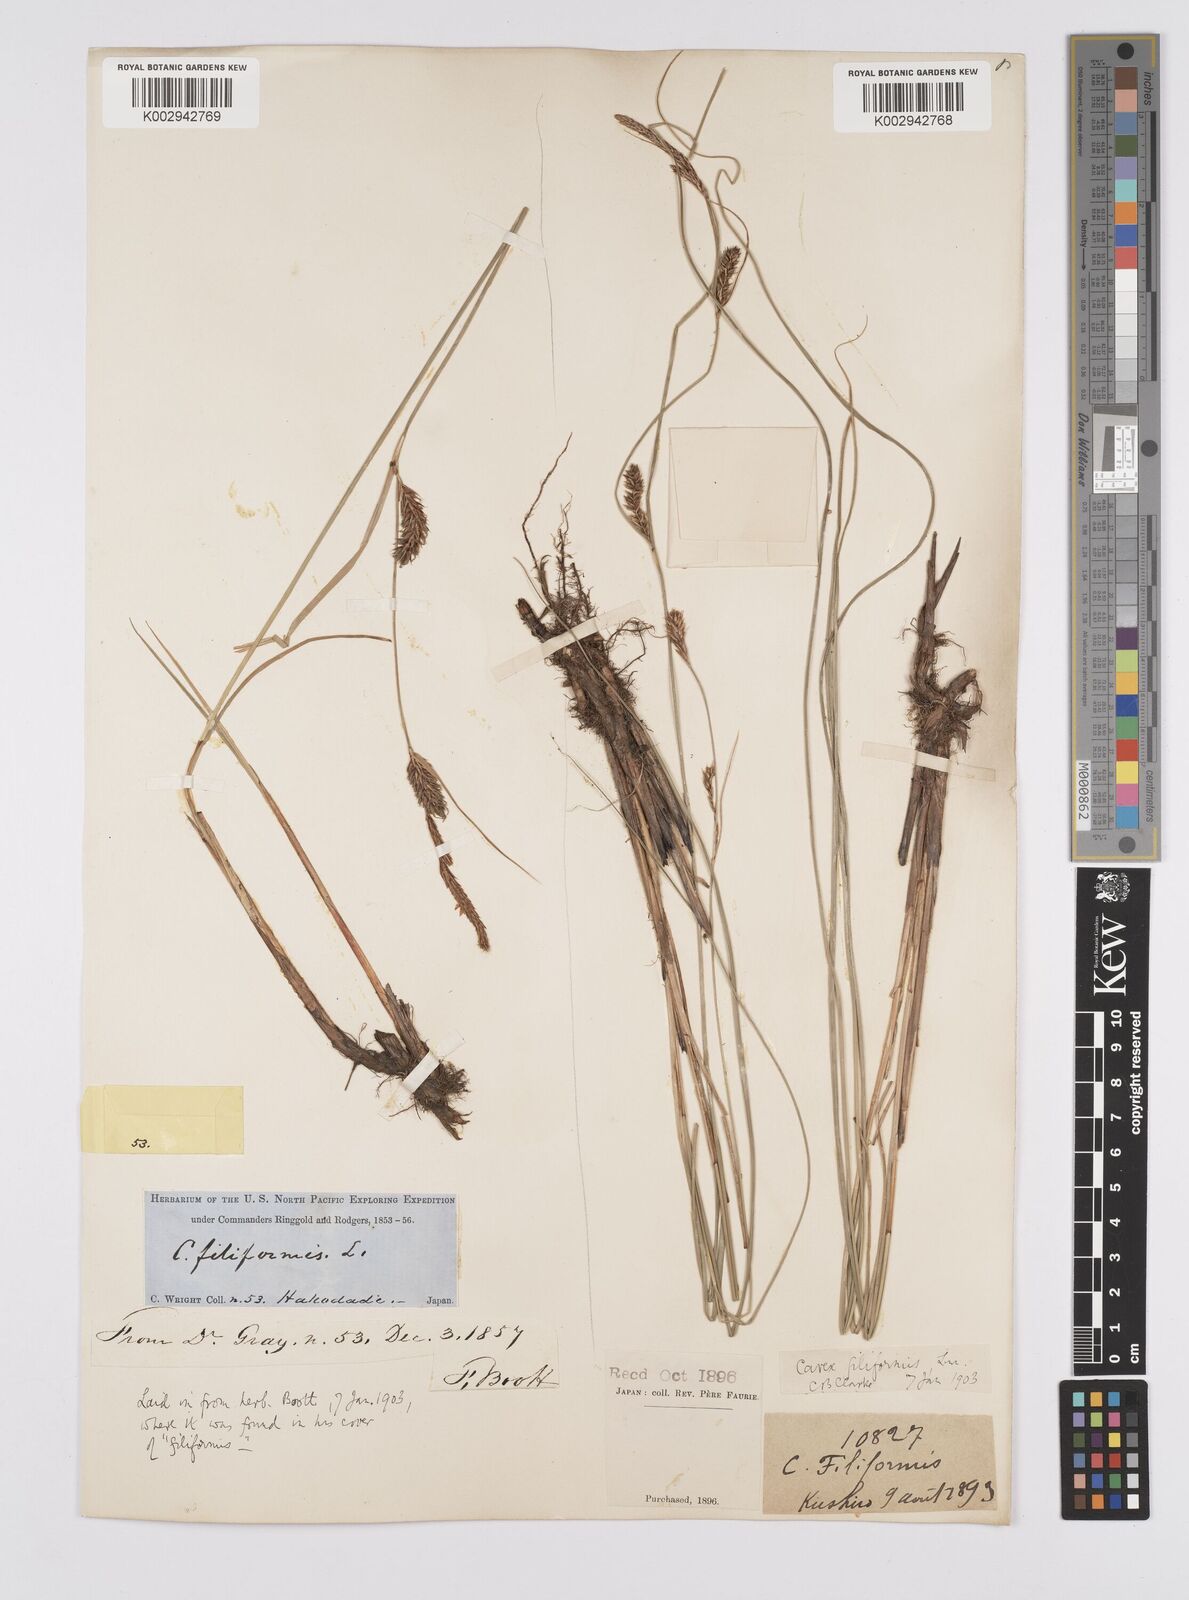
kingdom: Plantae
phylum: Tracheophyta
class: Liliopsida
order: Poales
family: Cyperaceae
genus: Carex
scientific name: Carex lasiocarpa
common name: Slender sedge
